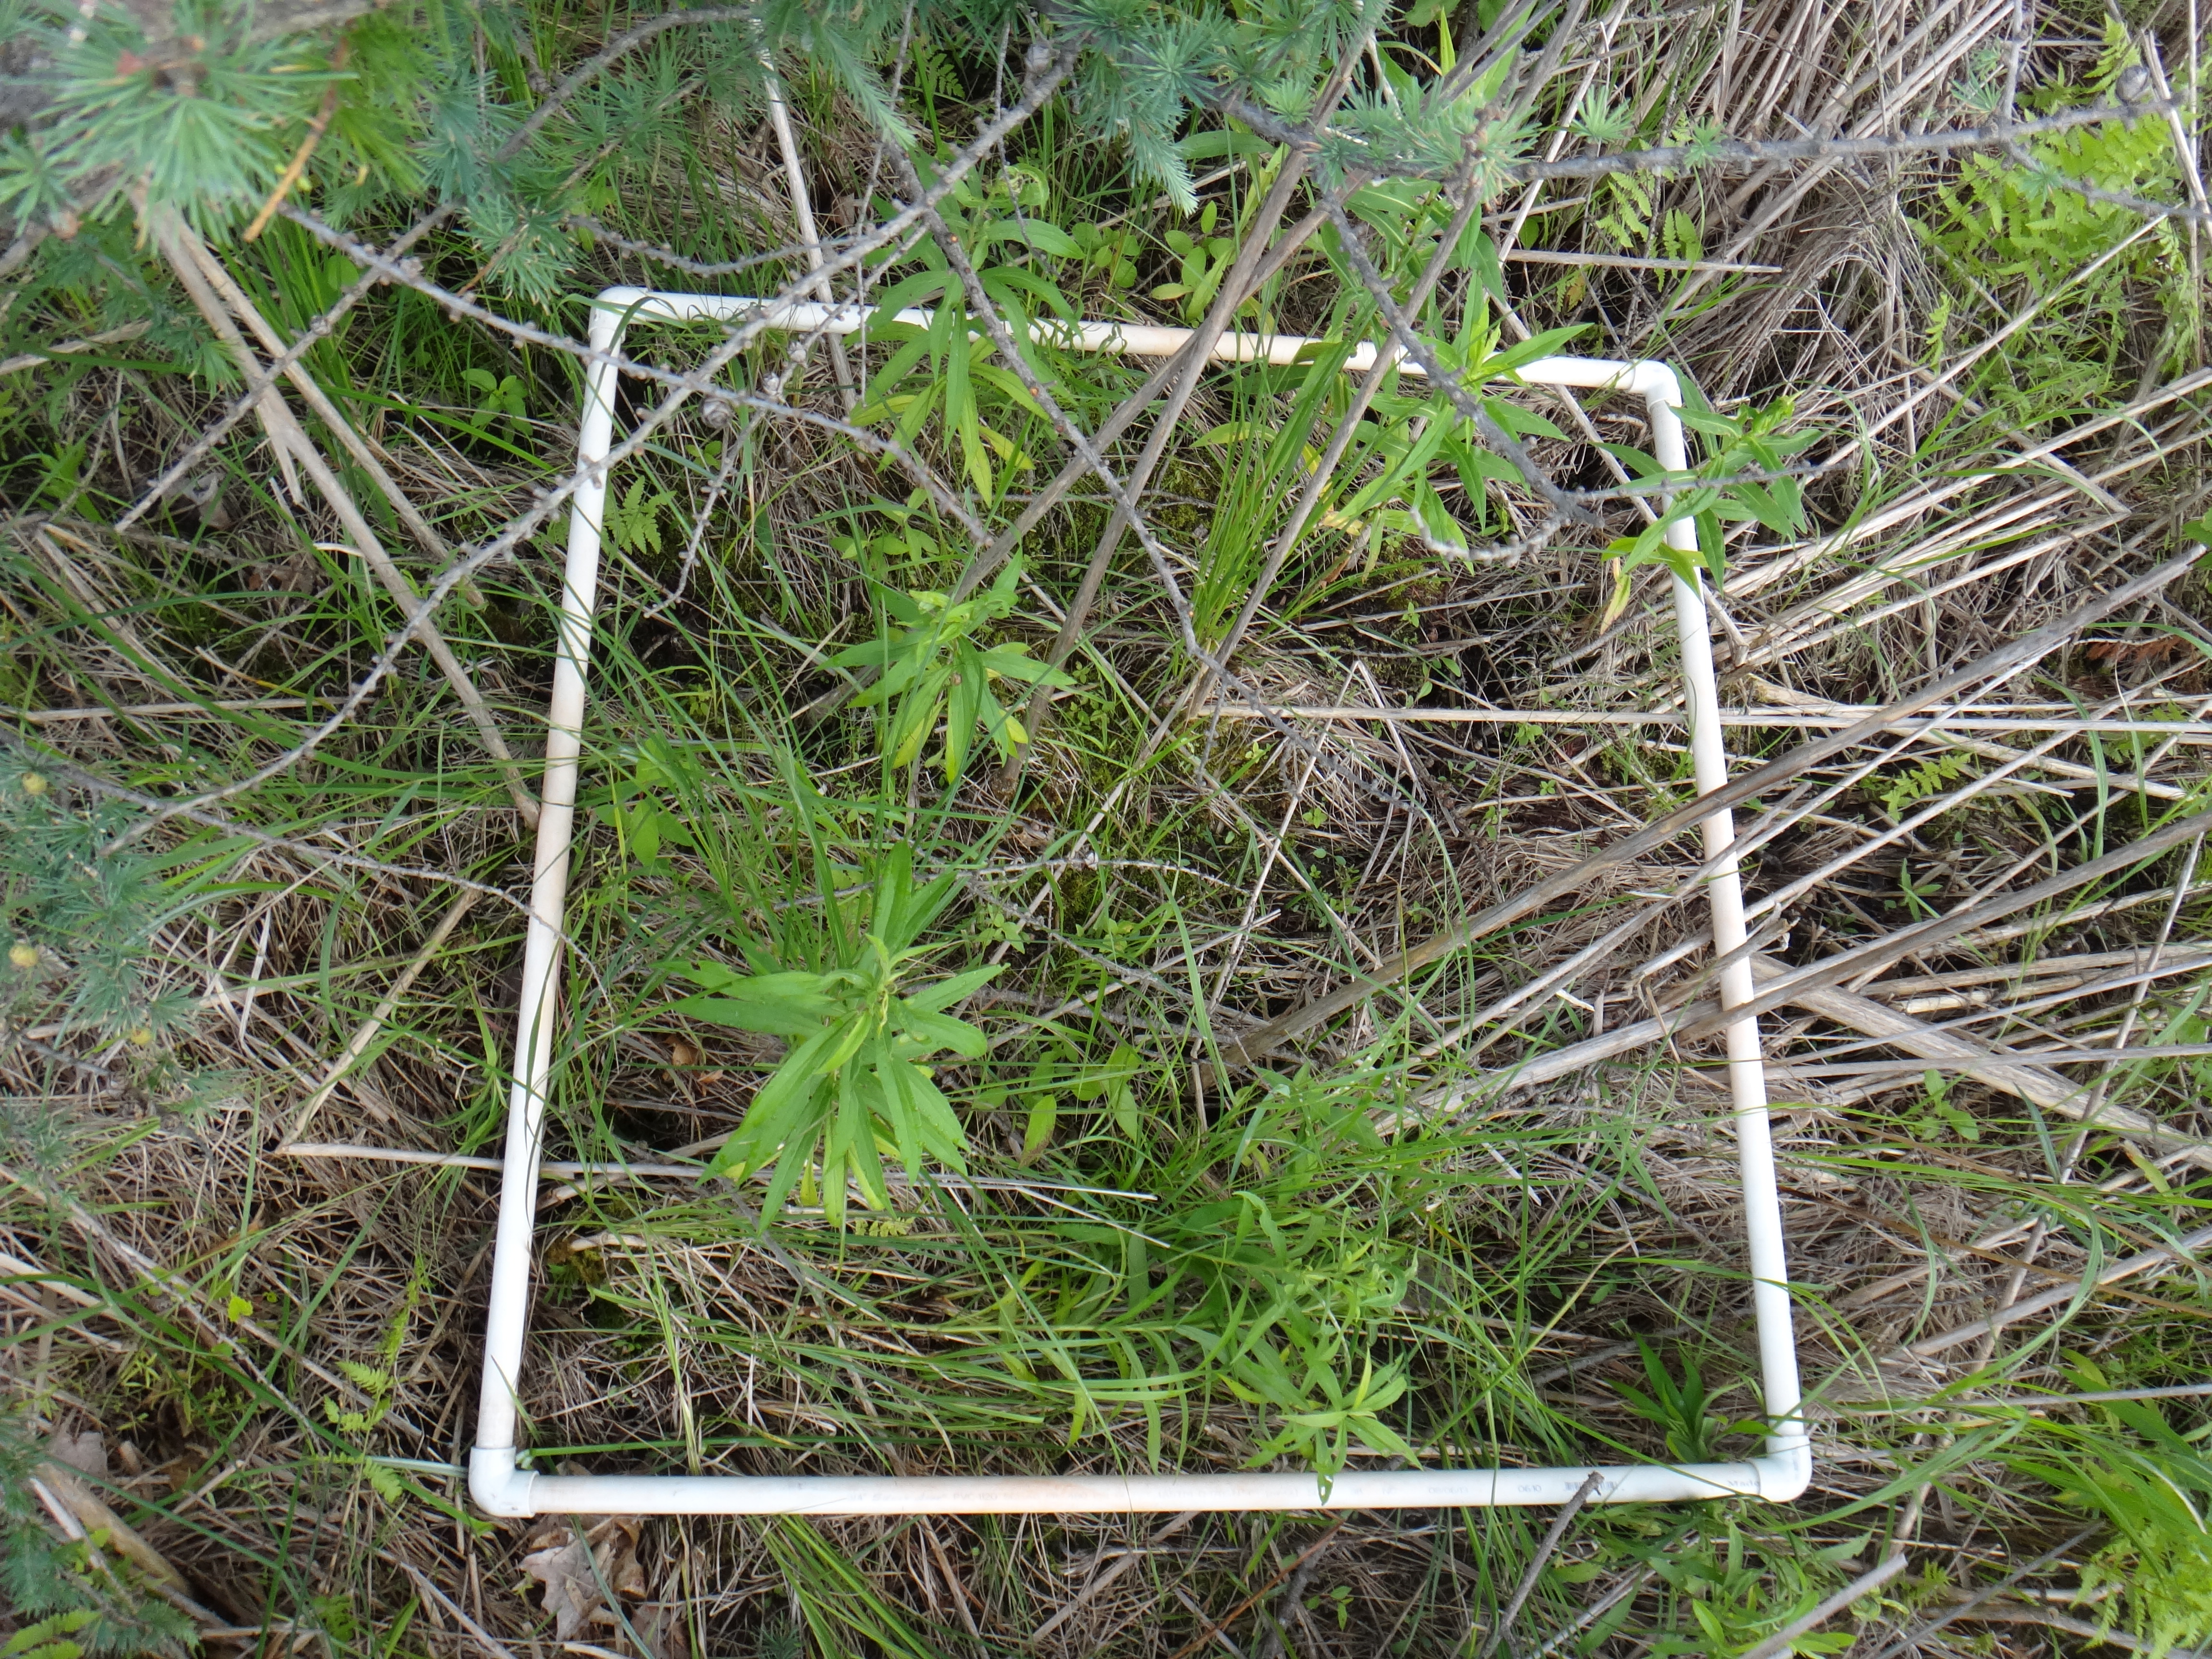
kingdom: Plantae
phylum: Tracheophyta
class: Magnoliopsida
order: Asterales
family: Asteraceae
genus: Symphyotrichum
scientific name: Symphyotrichum puniceum
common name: Bog aster
